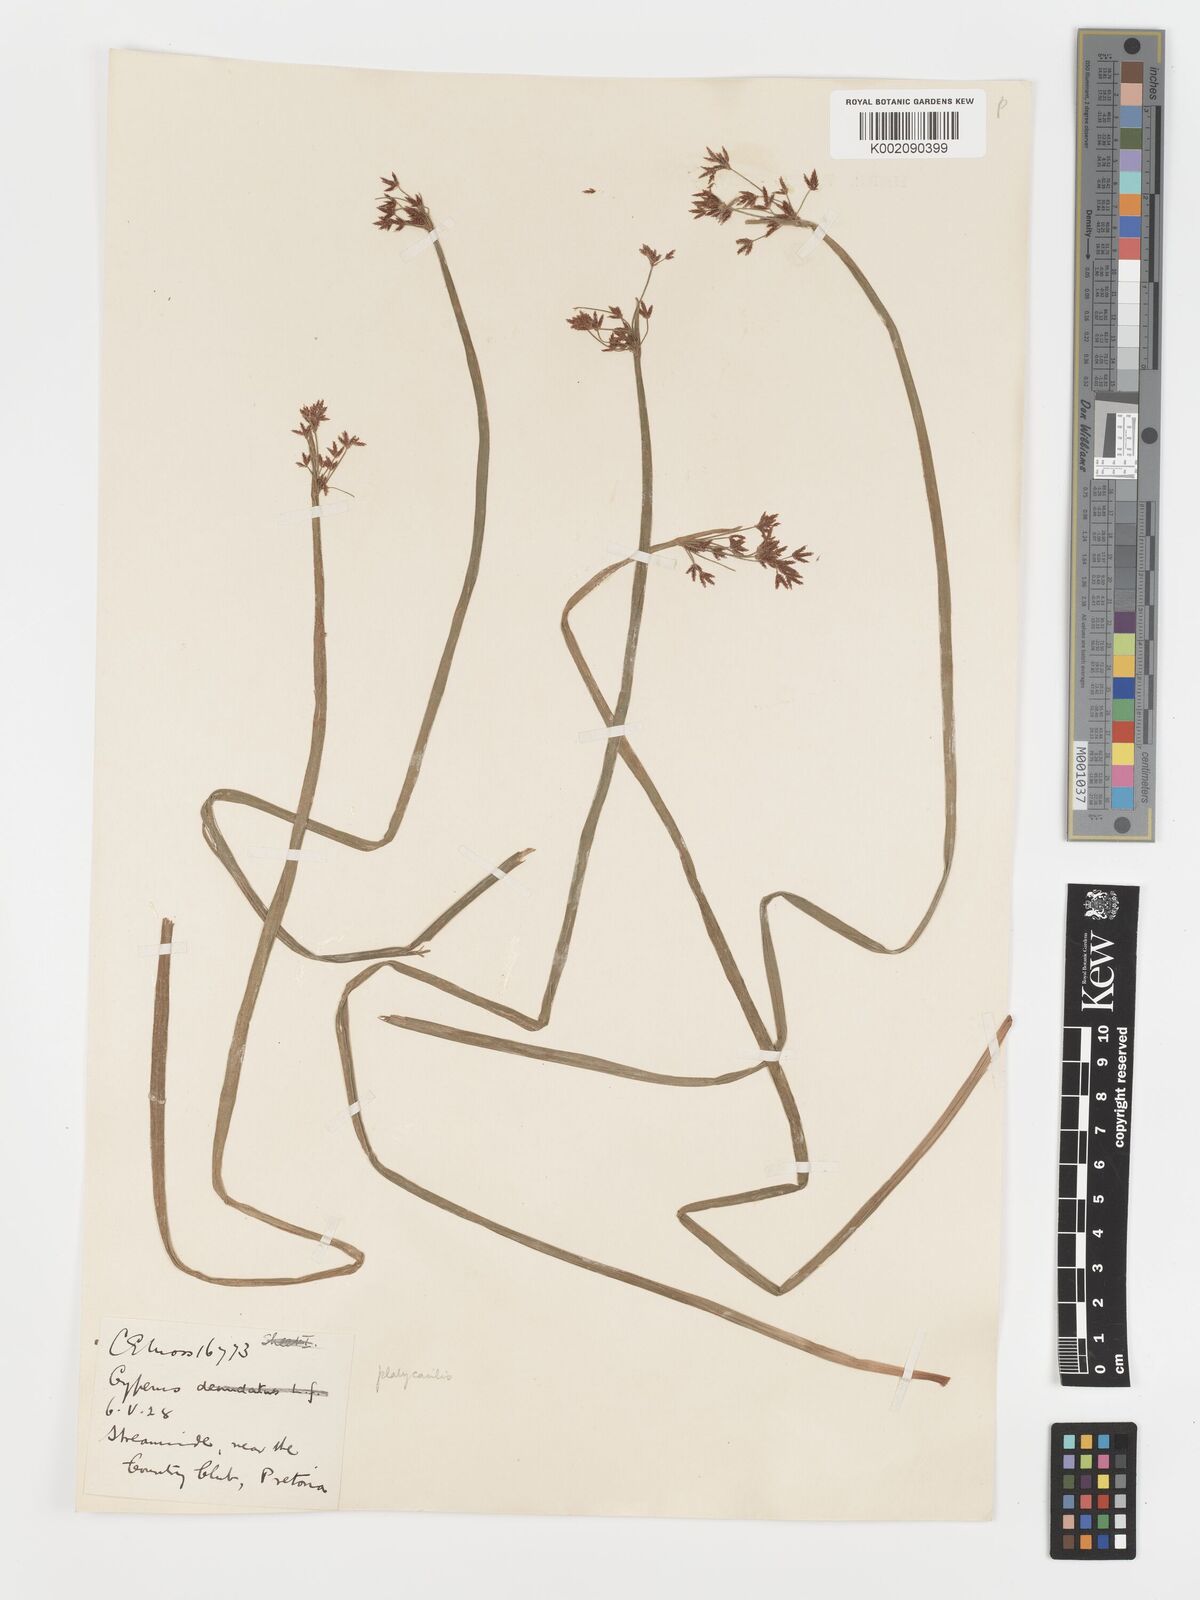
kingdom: Plantae
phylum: Tracheophyta
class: Liliopsida
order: Poales
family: Cyperaceae
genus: Cyperus
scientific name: Cyperus platycaulis
